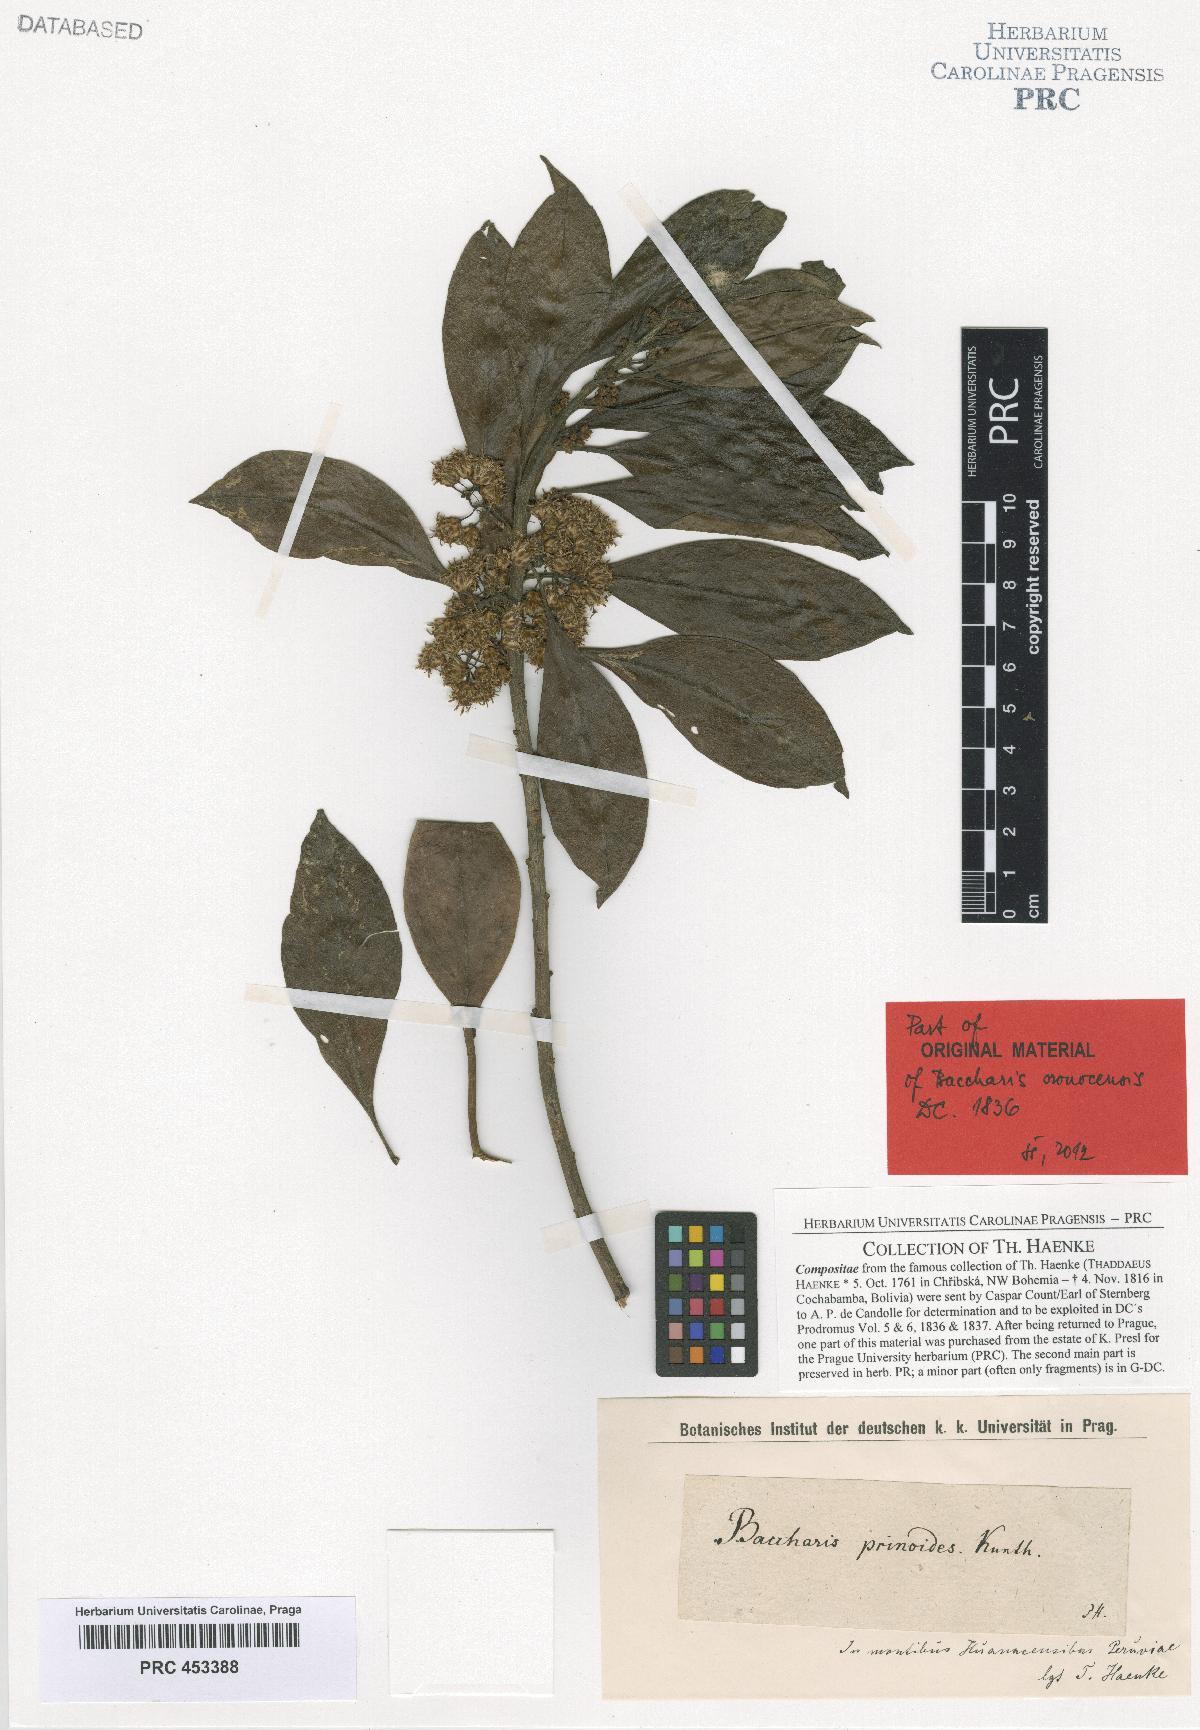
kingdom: Plantae
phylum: Tracheophyta
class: Magnoliopsida
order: Asterales
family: Asteraceae
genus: Baccharis
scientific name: Baccharis
